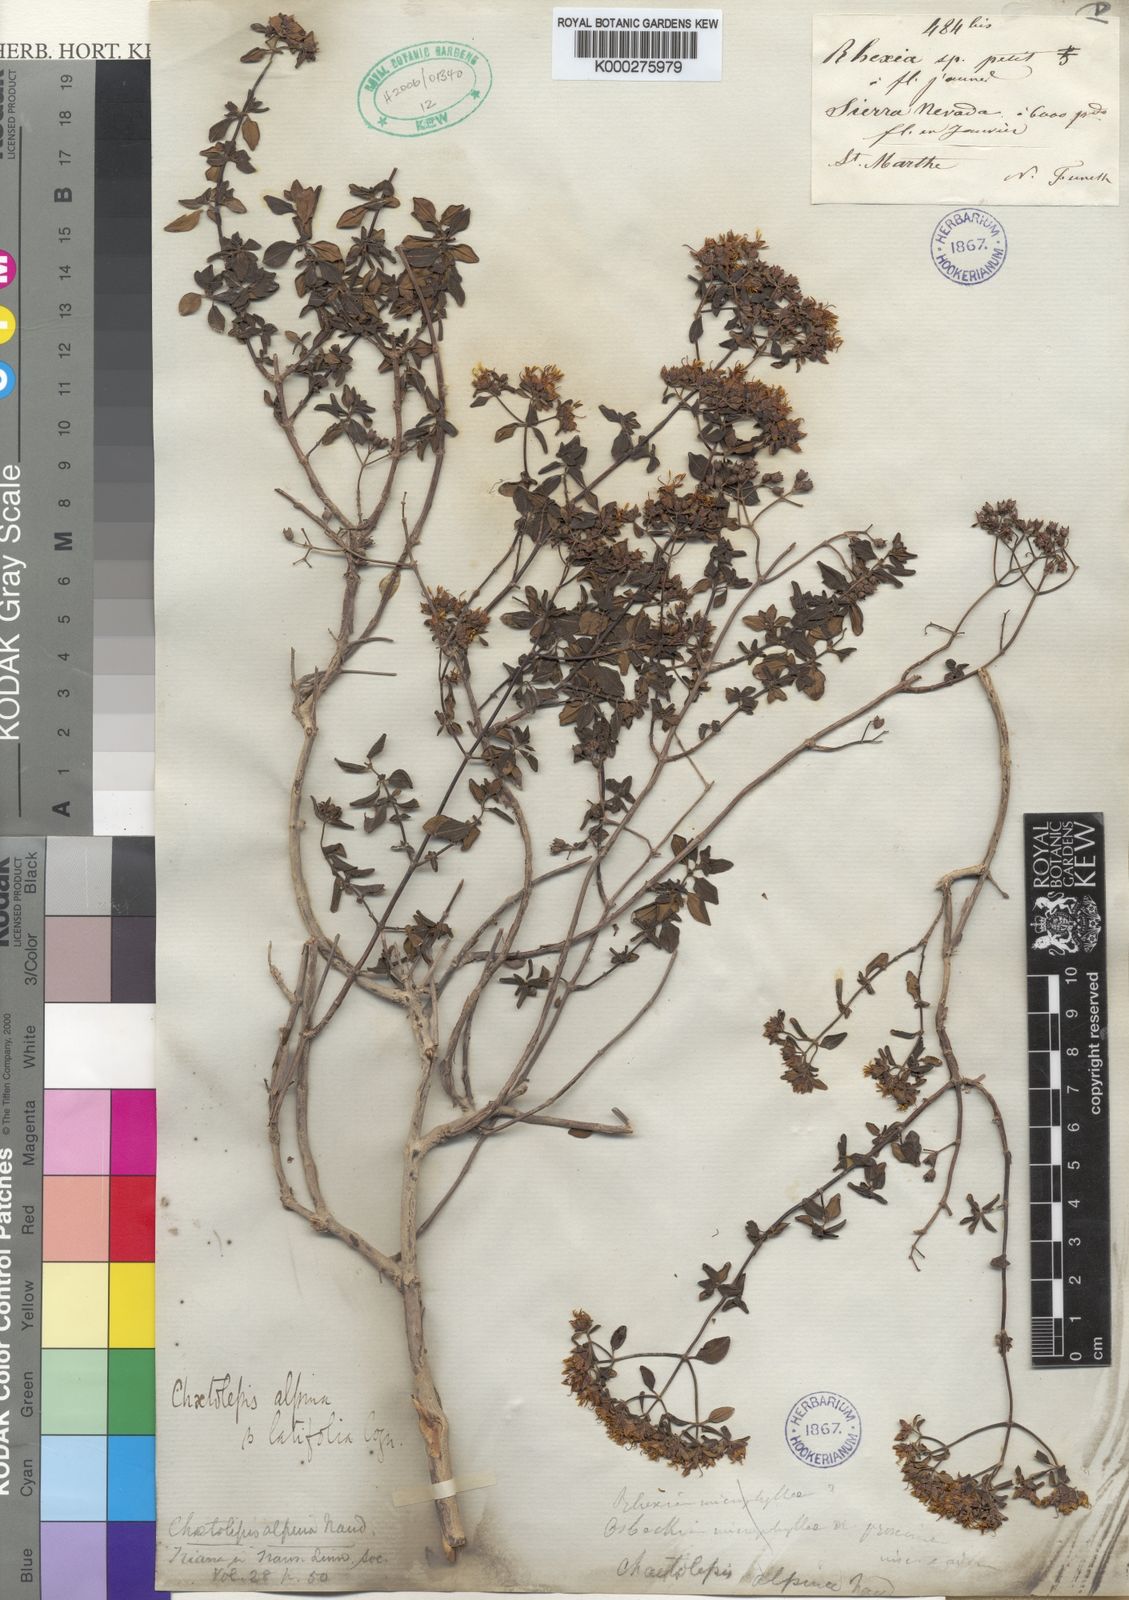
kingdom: Plantae
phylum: Tracheophyta
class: Magnoliopsida
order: Myrtales
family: Melastomataceae
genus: Chaetolepis
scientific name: Chaetolepis alpina
